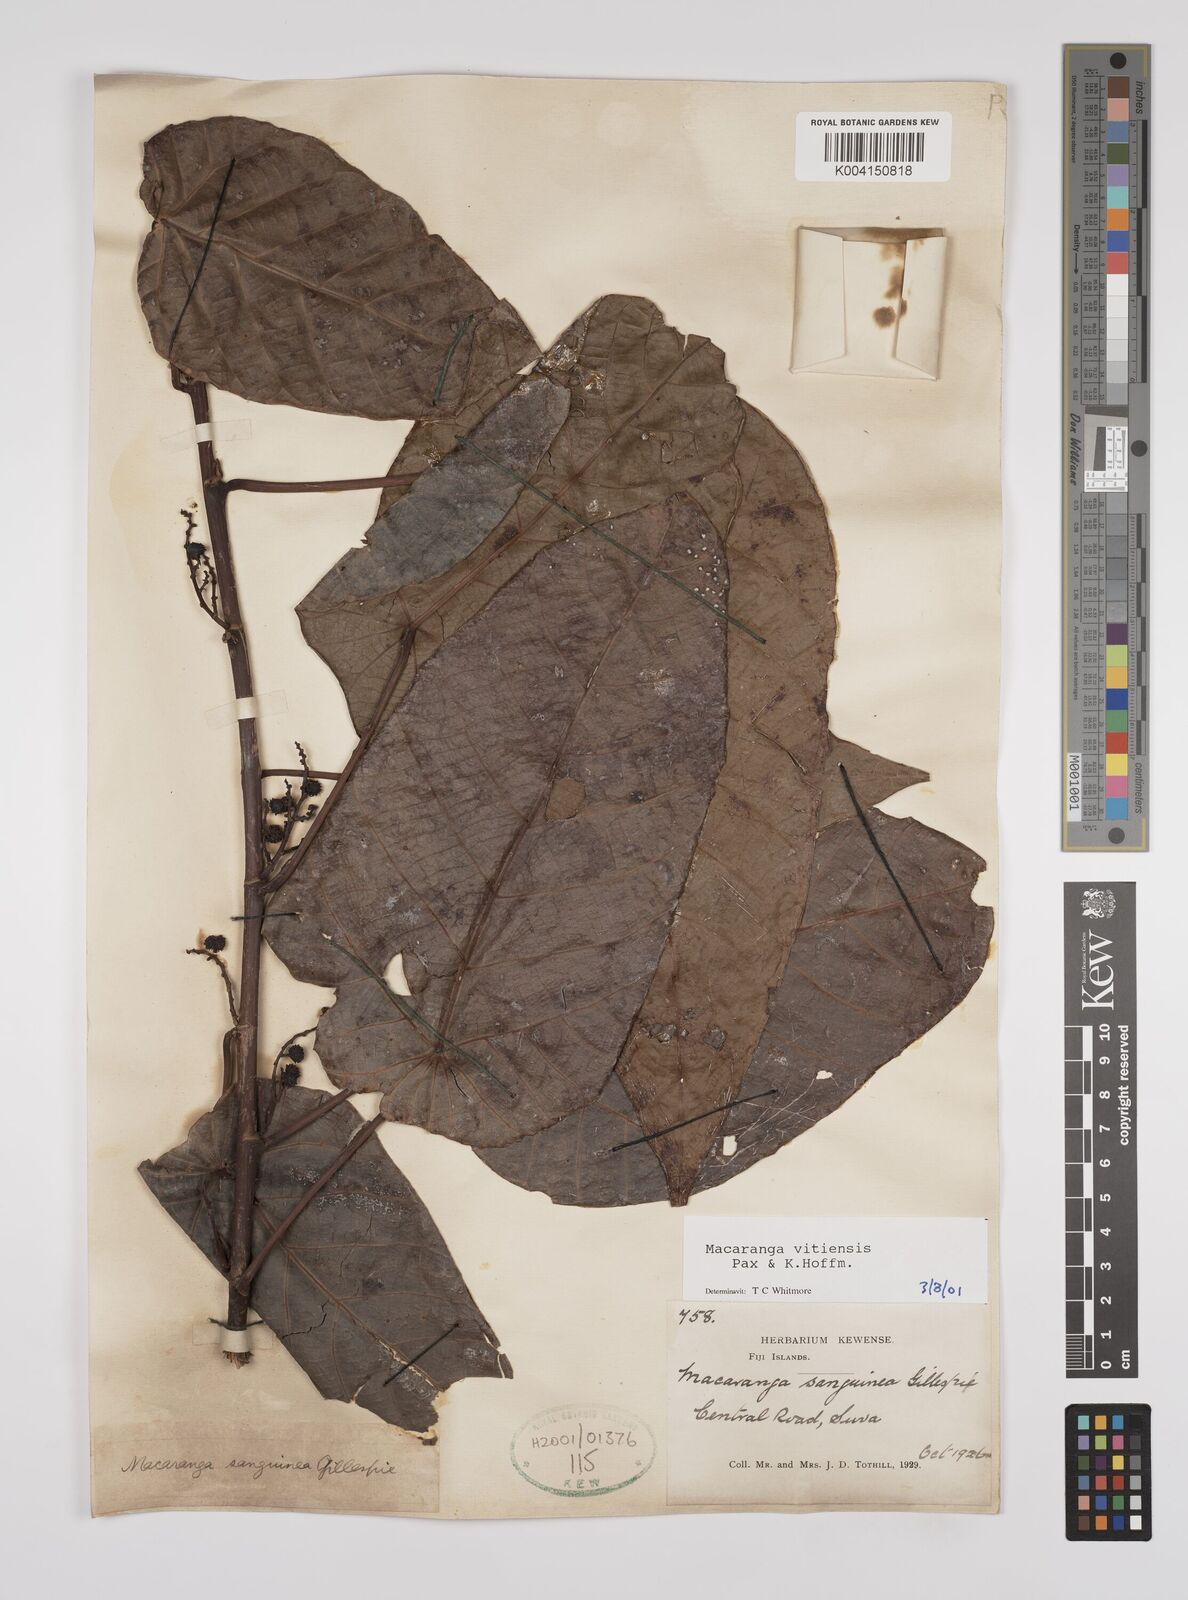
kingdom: Plantae
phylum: Tracheophyta
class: Magnoliopsida
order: Malpighiales
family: Euphorbiaceae
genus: Macaranga
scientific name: Macaranga vitiensis
